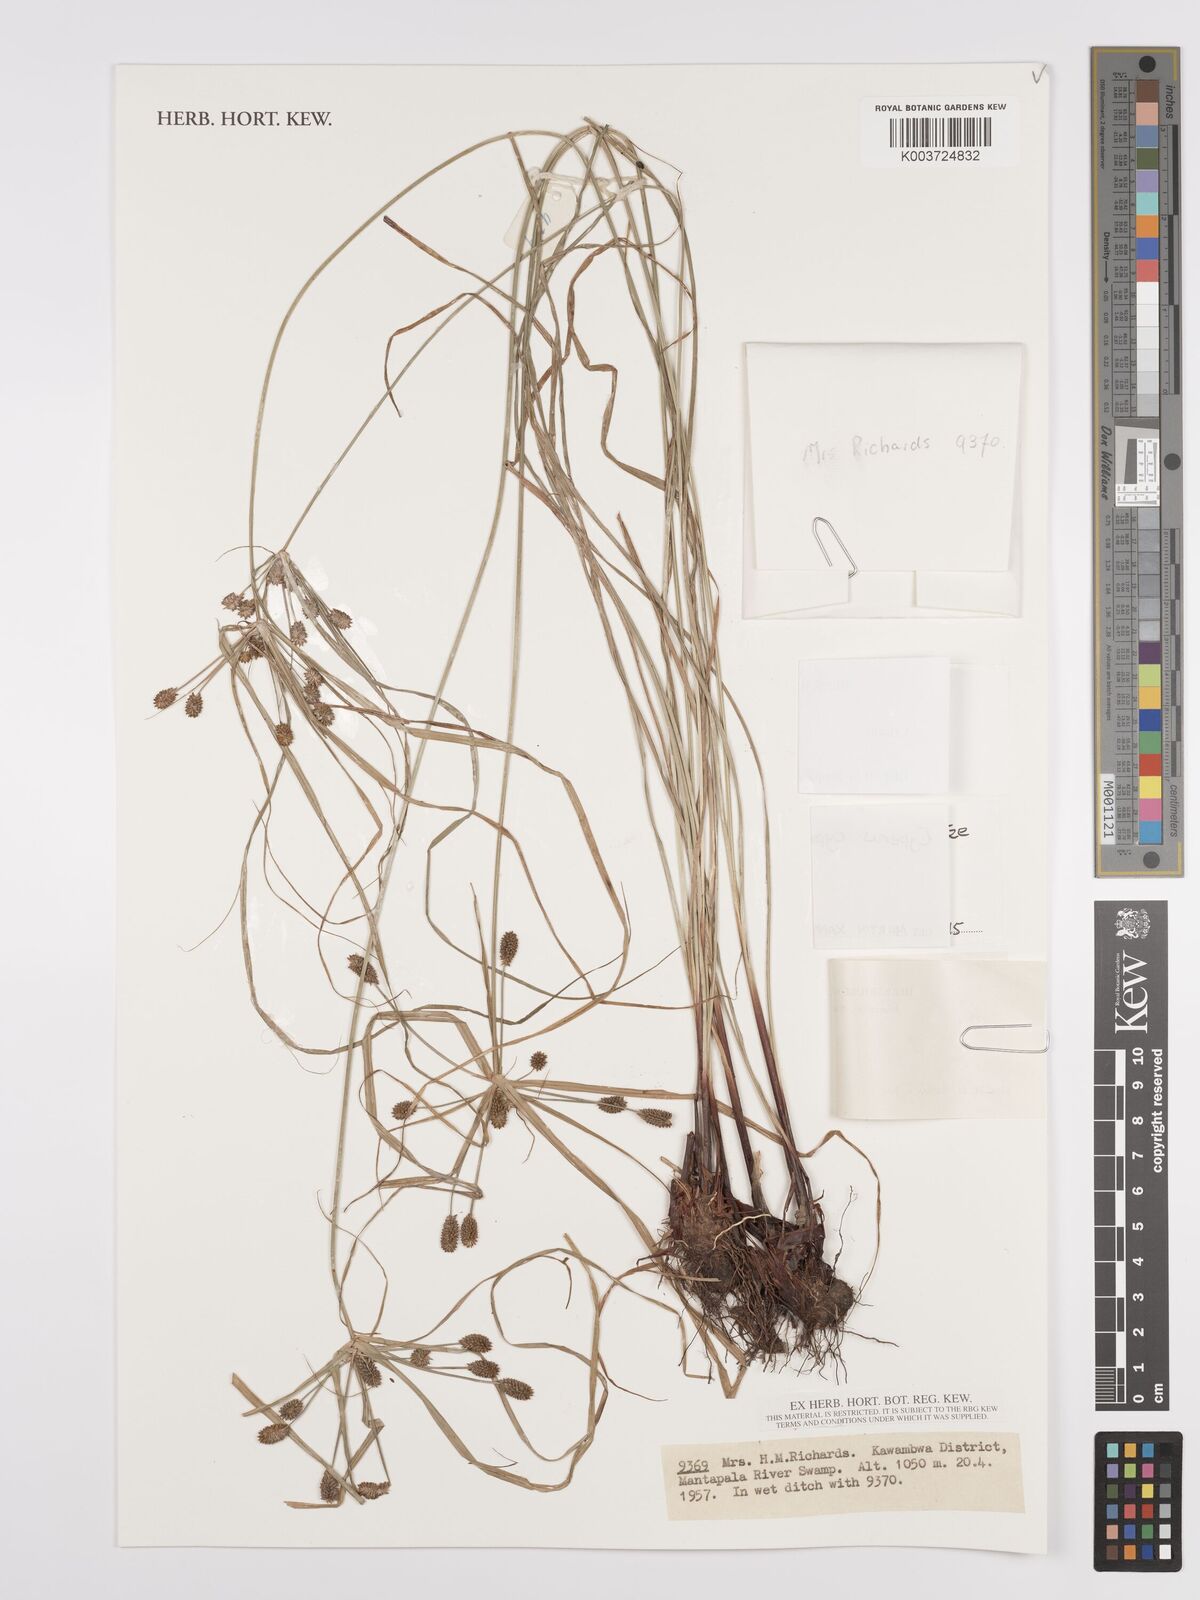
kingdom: Plantae
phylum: Tracheophyta
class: Liliopsida
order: Poales
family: Cyperaceae
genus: Cyperus
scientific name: Cyperus cyperoides
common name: Pacific island flat sedge
